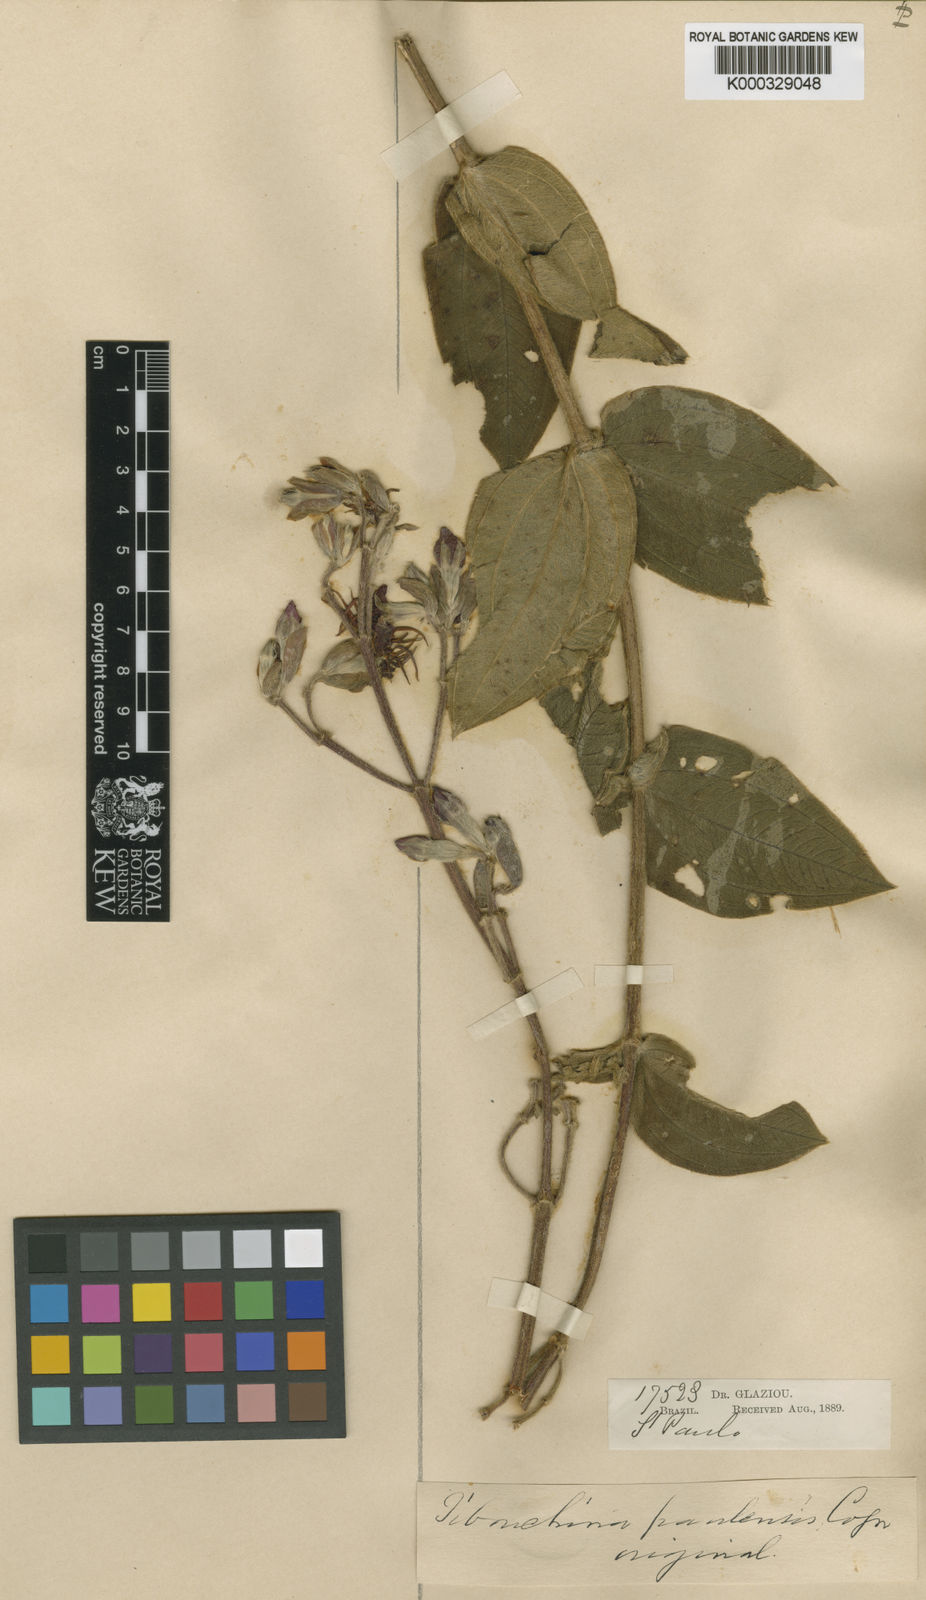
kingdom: Plantae
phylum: Tracheophyta
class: Magnoliopsida
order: Myrtales
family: Melastomataceae
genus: Pleroma
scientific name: Pleroma clavatum
